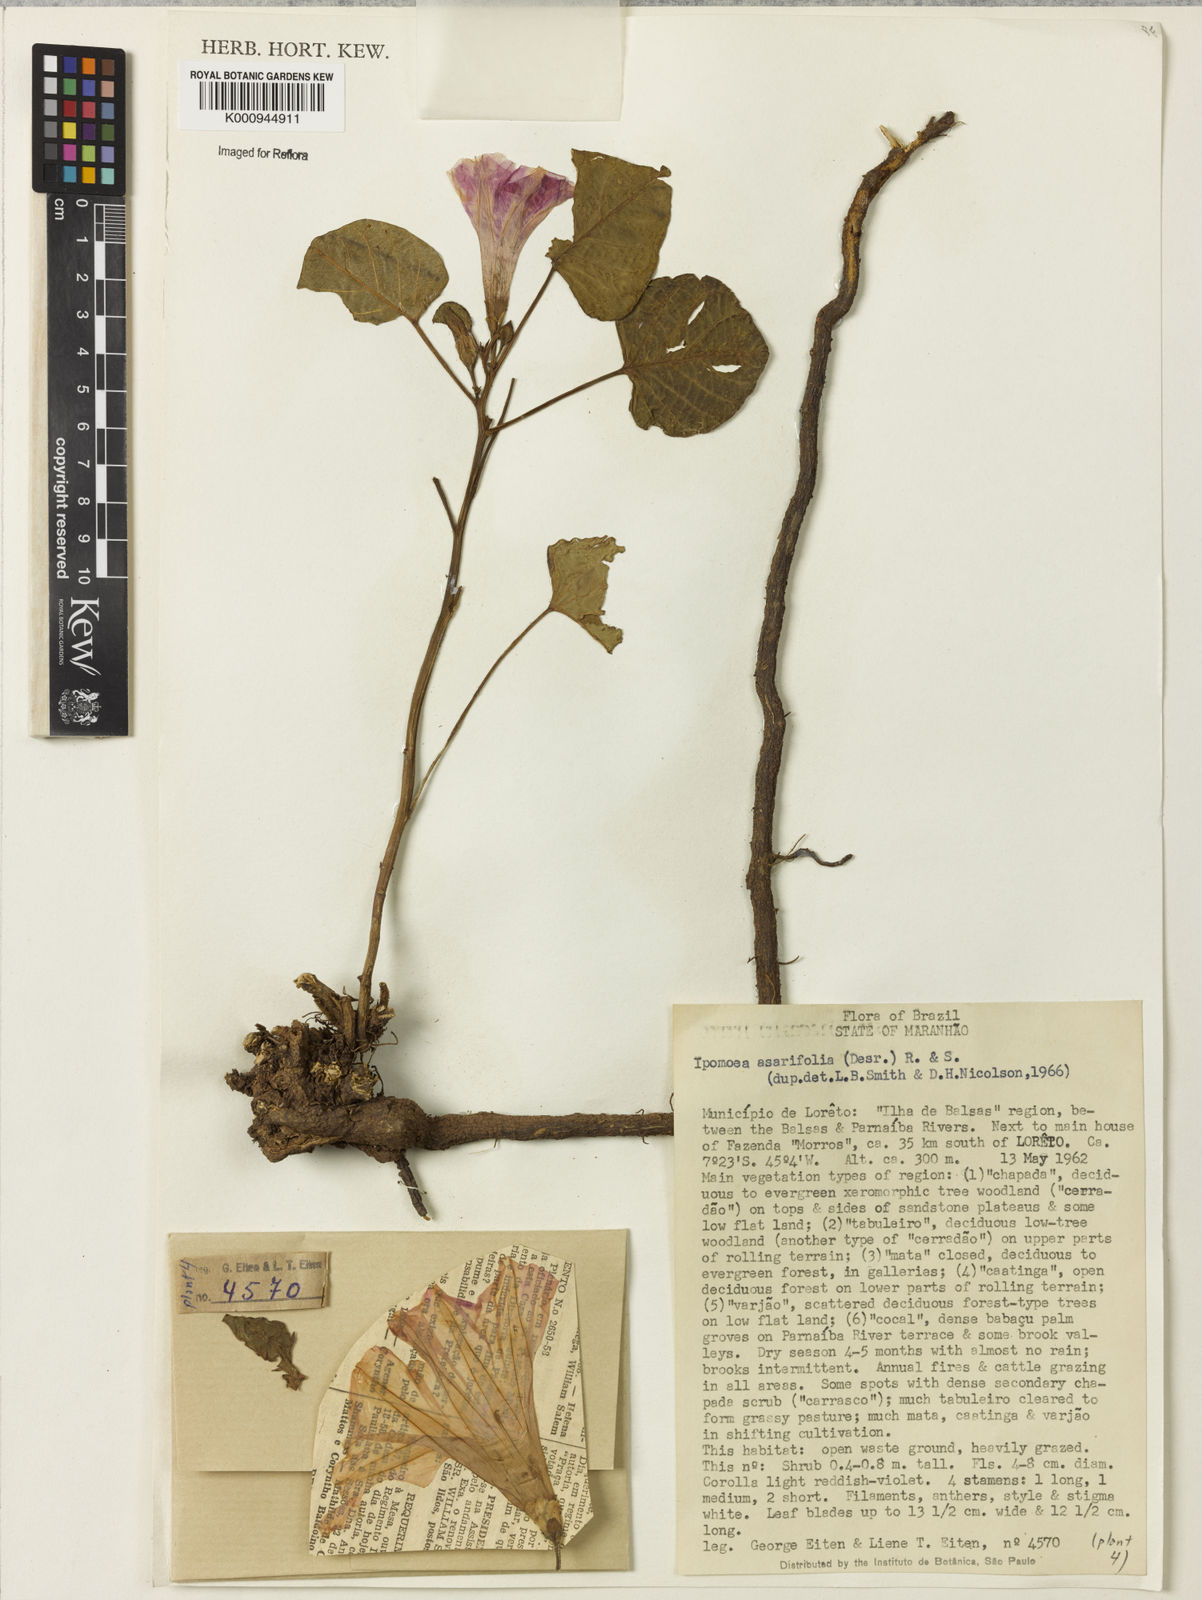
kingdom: Plantae
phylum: Tracheophyta
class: Magnoliopsida
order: Solanales
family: Convolvulaceae
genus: Ipomoea
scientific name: Ipomoea asarifolia
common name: Ginger-leaf morning-glory
